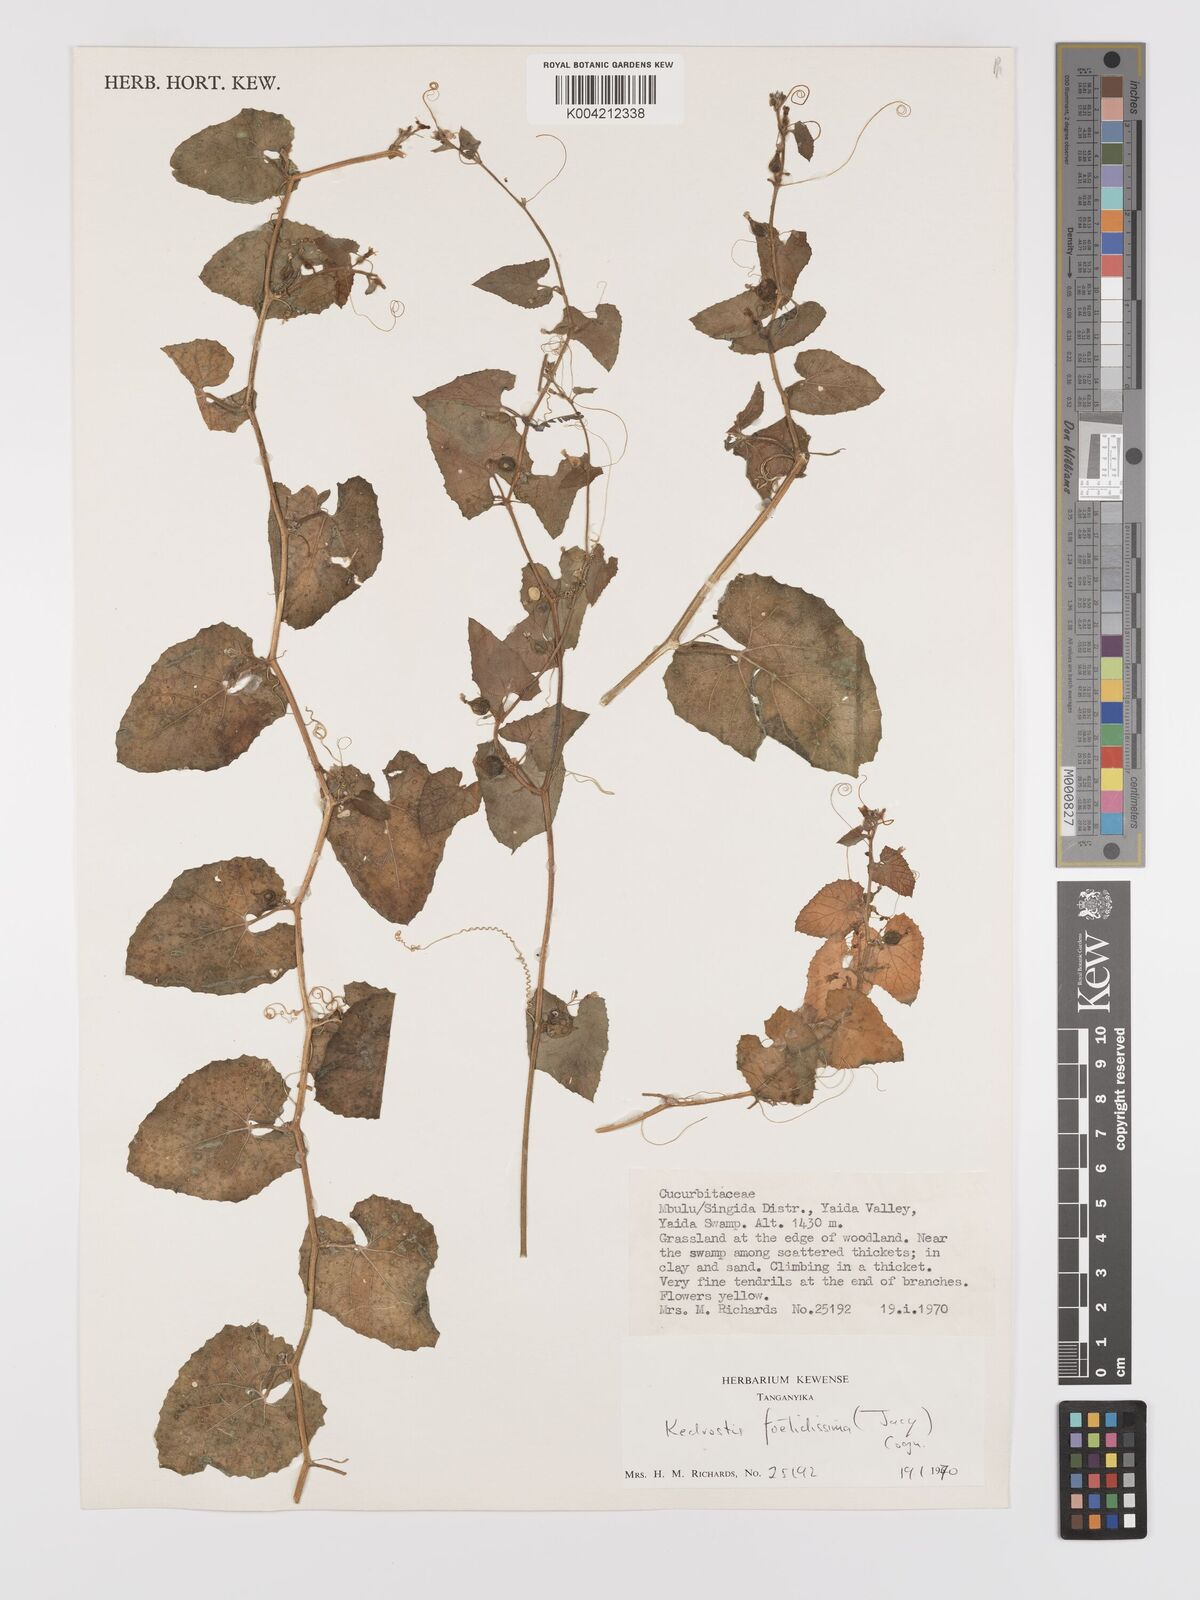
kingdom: Plantae
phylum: Tracheophyta
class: Magnoliopsida
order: Cucurbitales
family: Cucurbitaceae
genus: Kedrostis
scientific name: Kedrostis foetidissima
